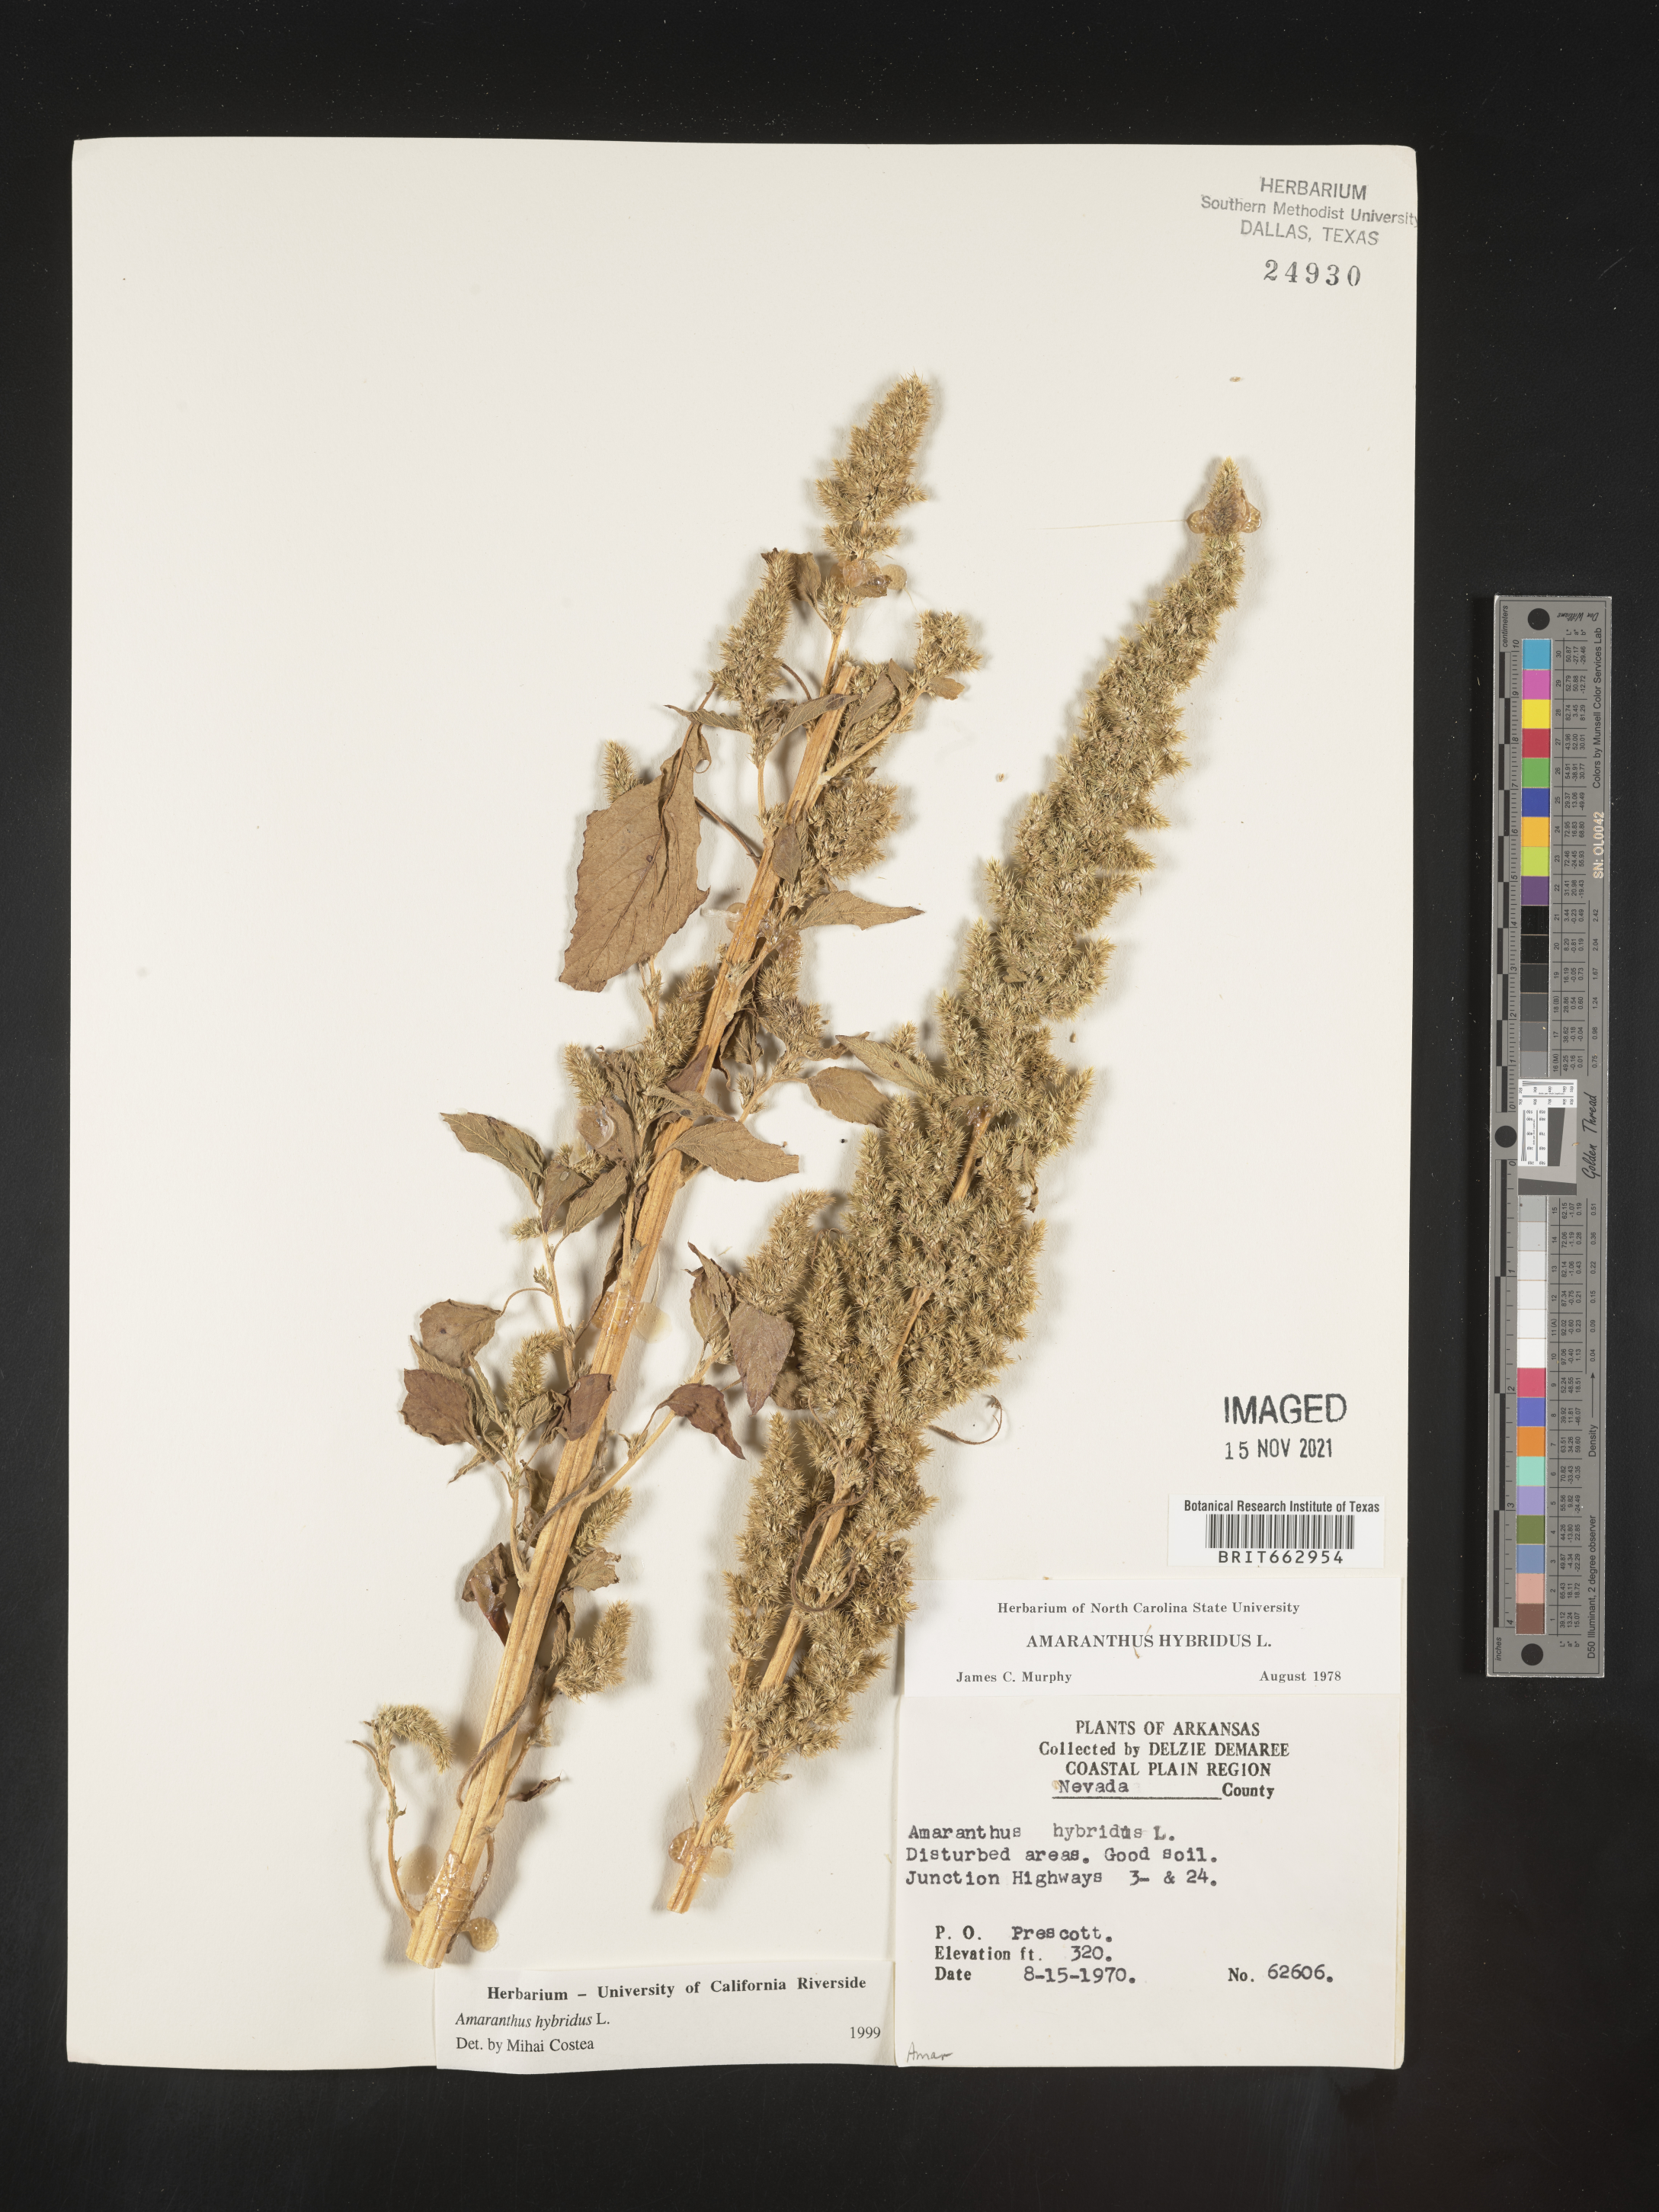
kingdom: Plantae
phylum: Tracheophyta
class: Magnoliopsida
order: Caryophyllales
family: Amaranthaceae
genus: Amaranthus
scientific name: Amaranthus hybridus
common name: Green amaranth
